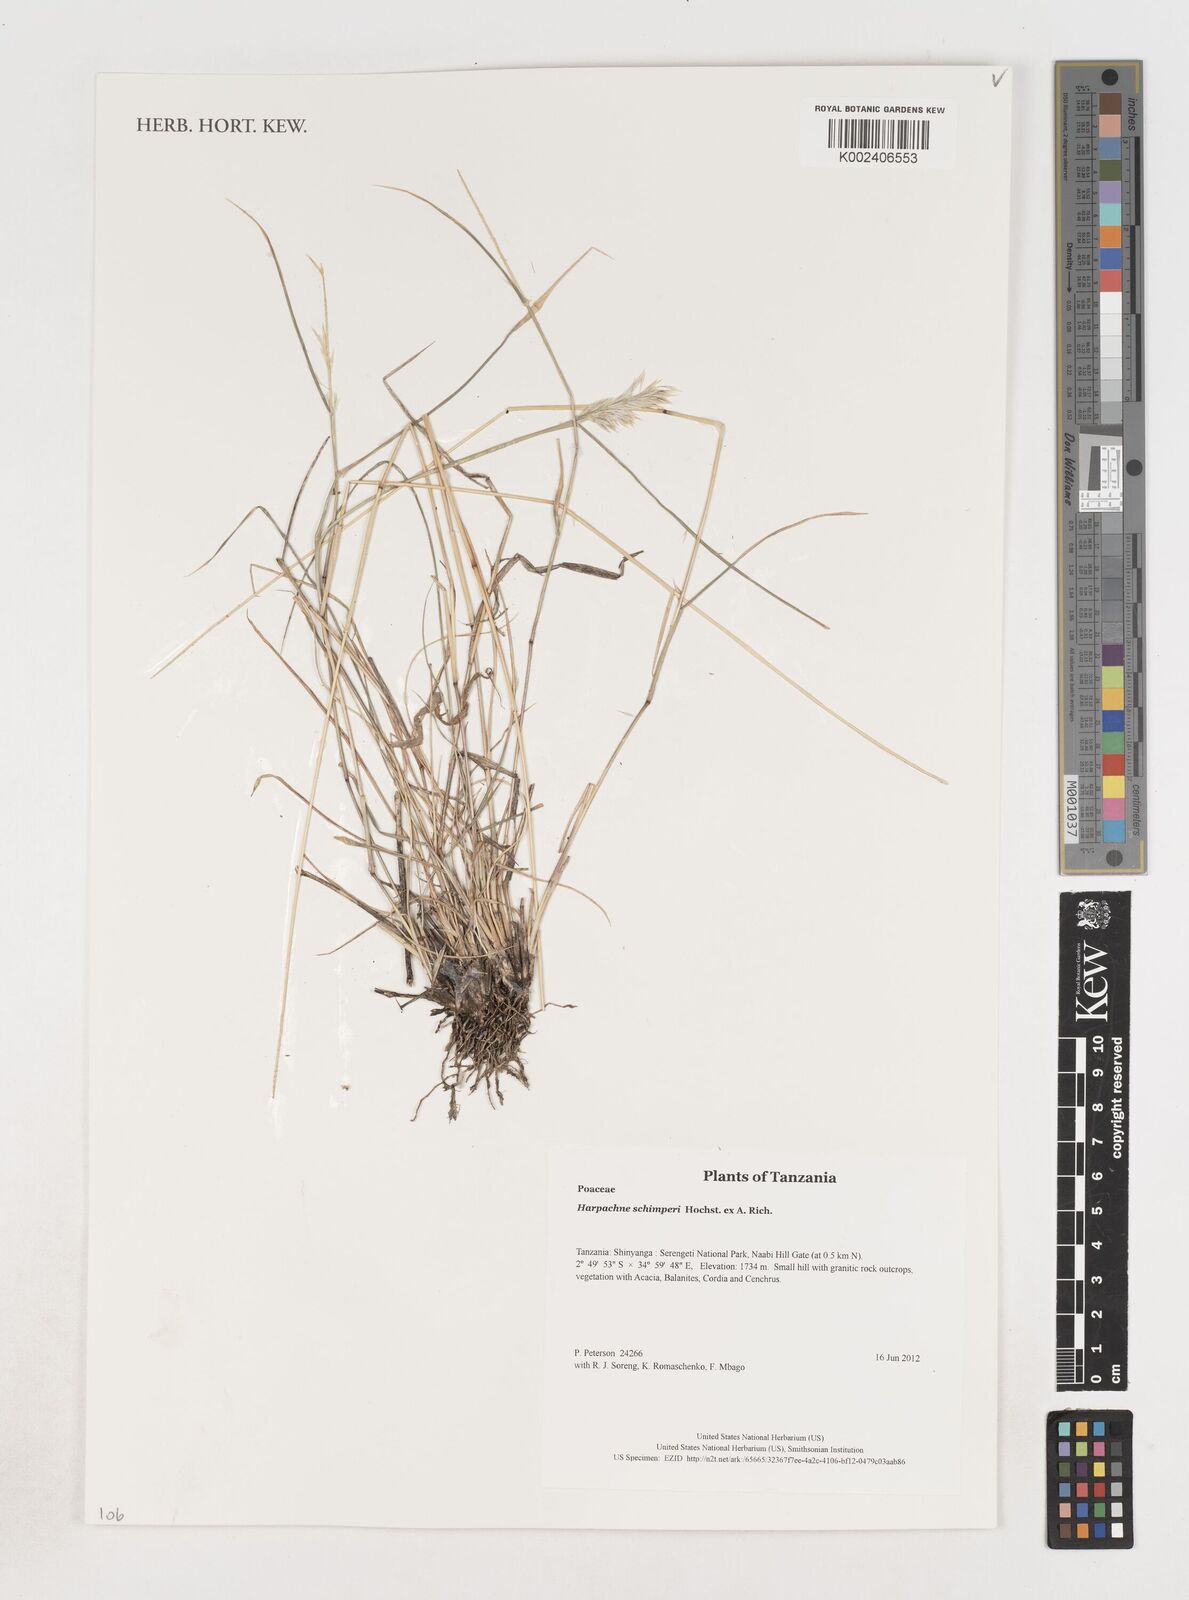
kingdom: Plantae
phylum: Tracheophyta
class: Liliopsida
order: Poales
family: Poaceae
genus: Harpachne
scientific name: Harpachne schimperi
